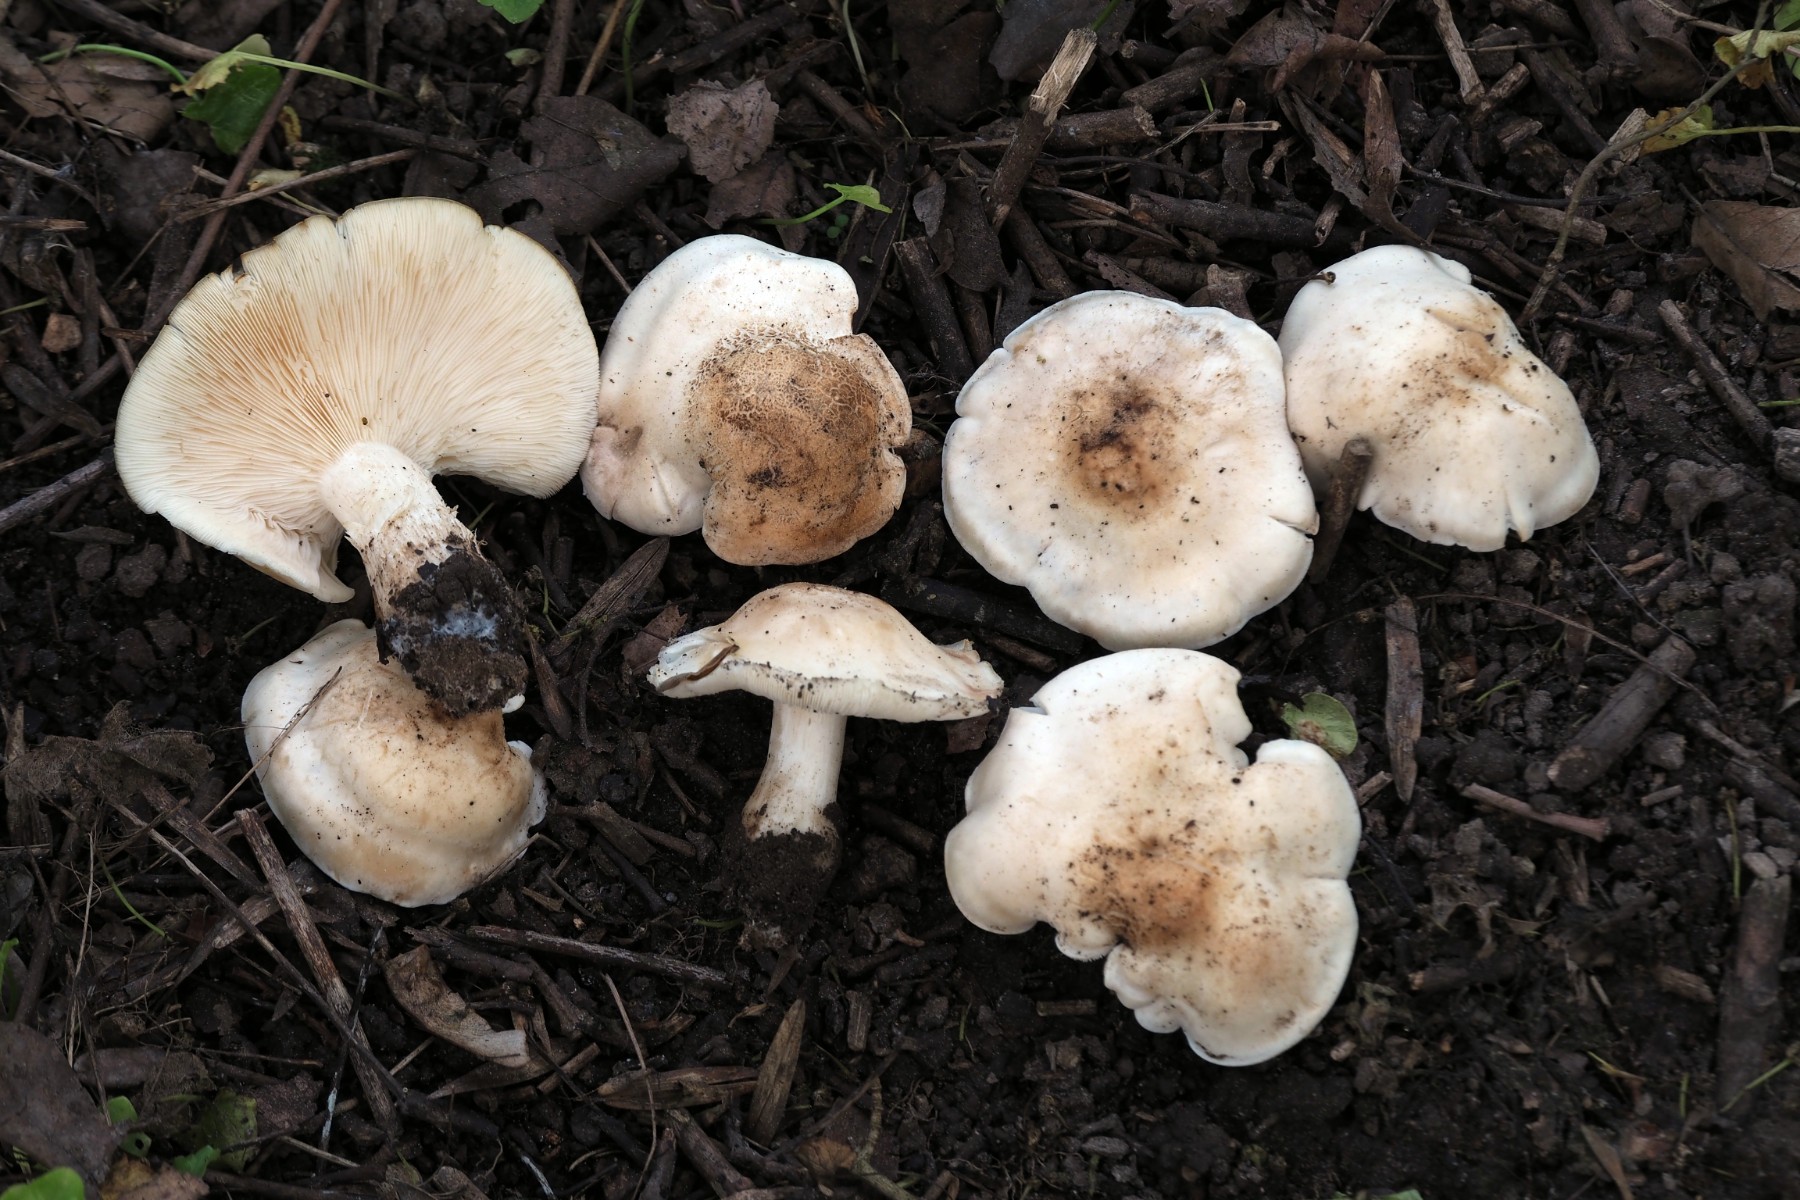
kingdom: Fungi
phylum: Basidiomycota
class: Agaricomycetes
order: Agaricales
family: Lyophyllaceae
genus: Calocybe
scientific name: Calocybe gambosa
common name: vårmusseron
